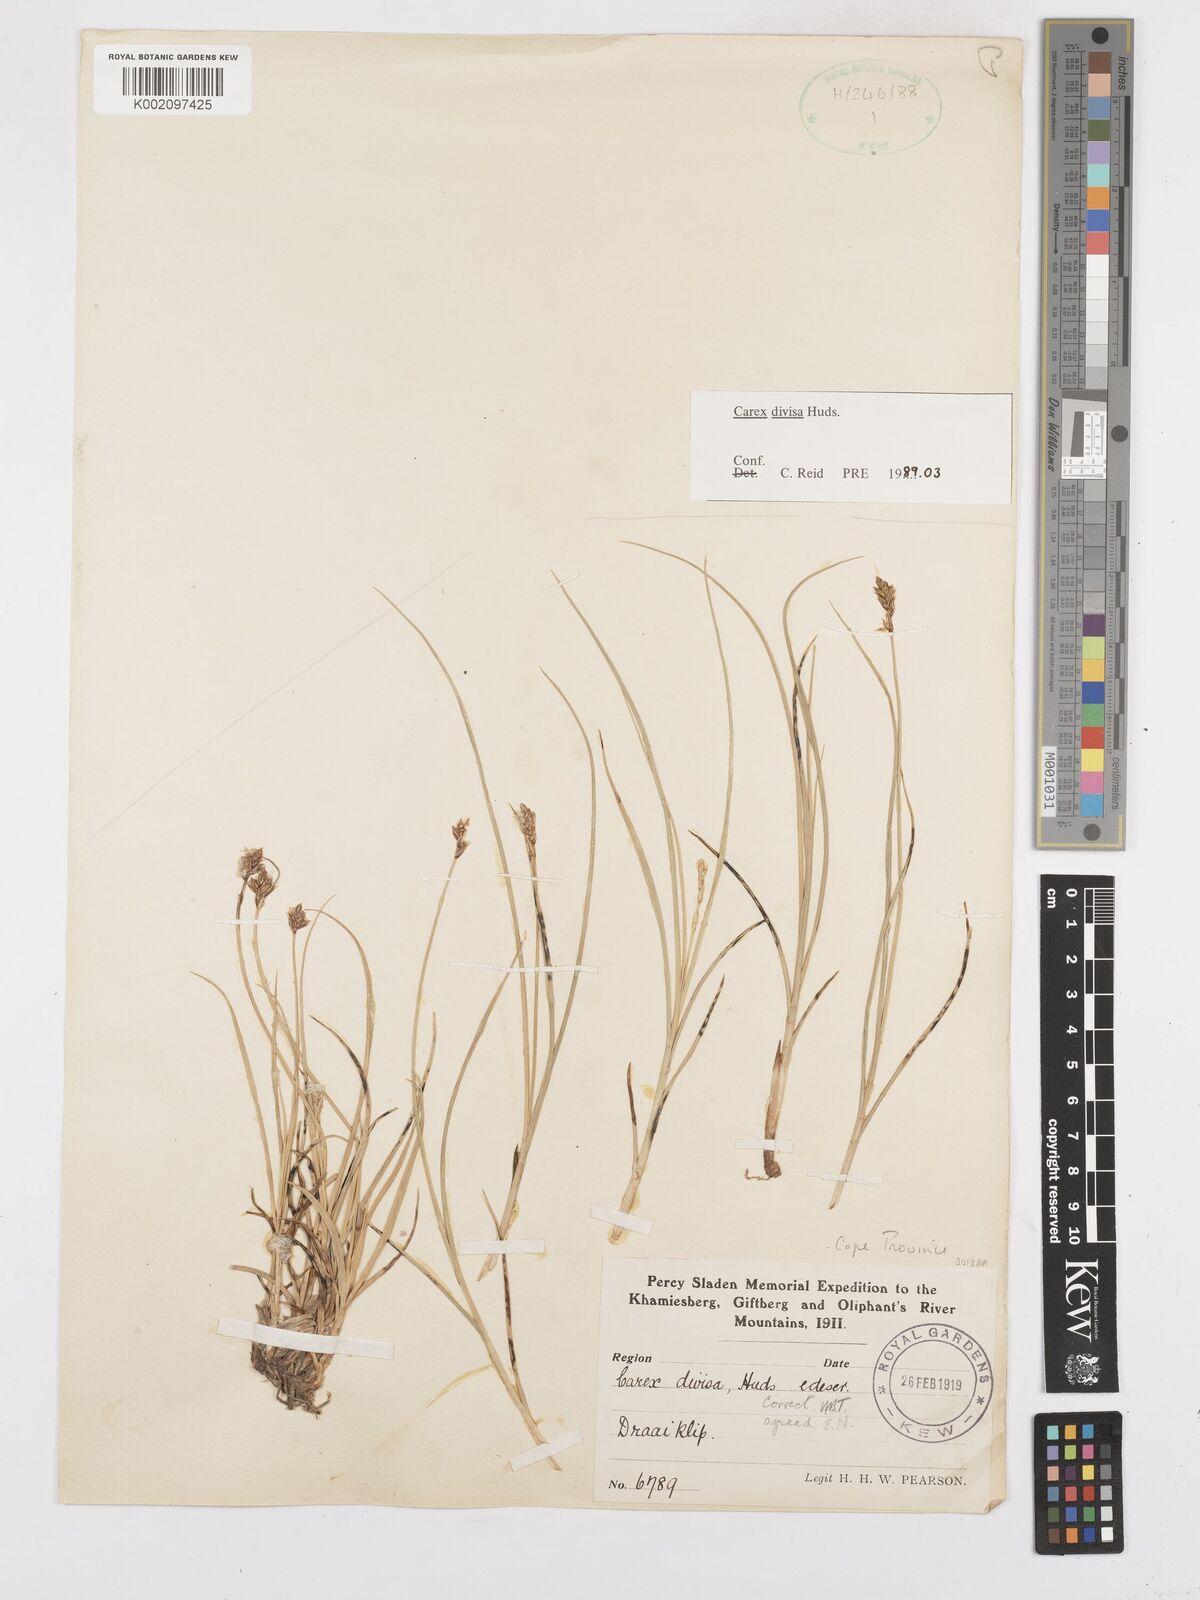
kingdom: Plantae
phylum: Tracheophyta
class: Liliopsida
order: Poales
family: Cyperaceae
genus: Carex
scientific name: Carex divisa
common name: Divided sedge
